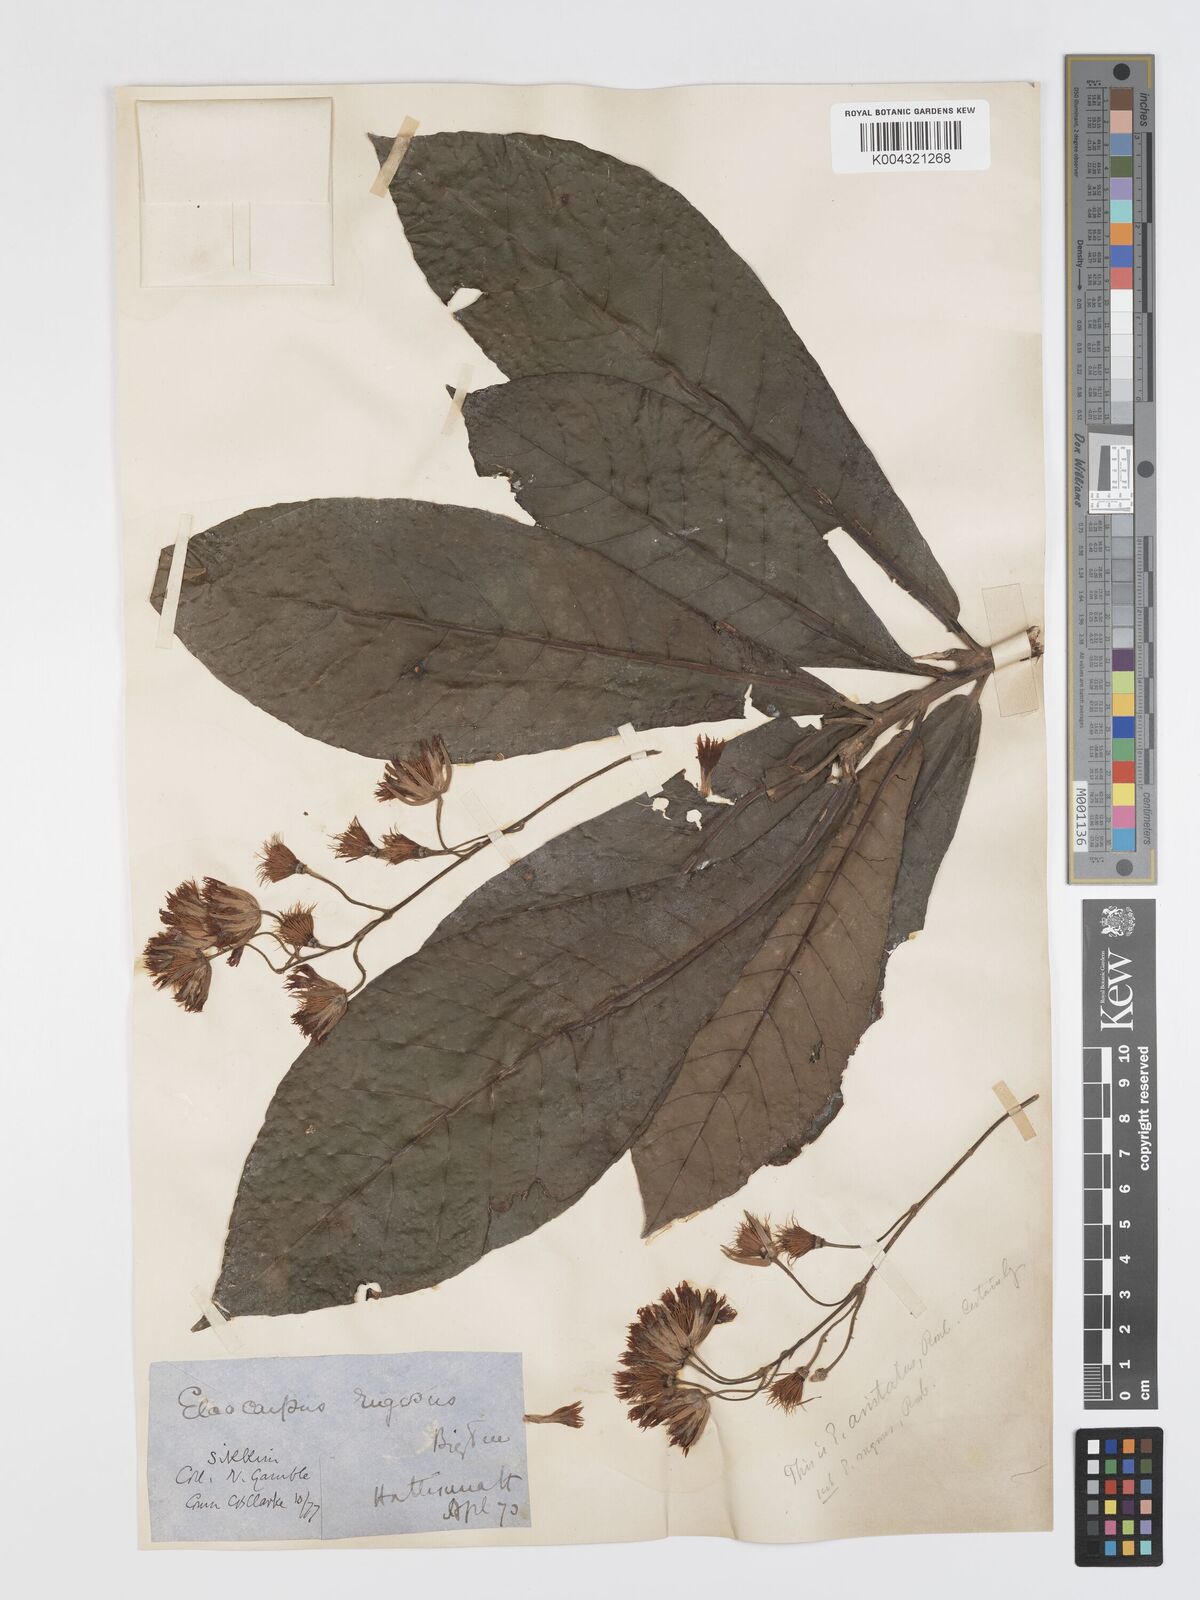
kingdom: Plantae
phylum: Tracheophyta
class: Magnoliopsida
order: Oxalidales
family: Elaeocarpaceae
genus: Elaeocarpus
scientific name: Elaeocarpus aristatus
